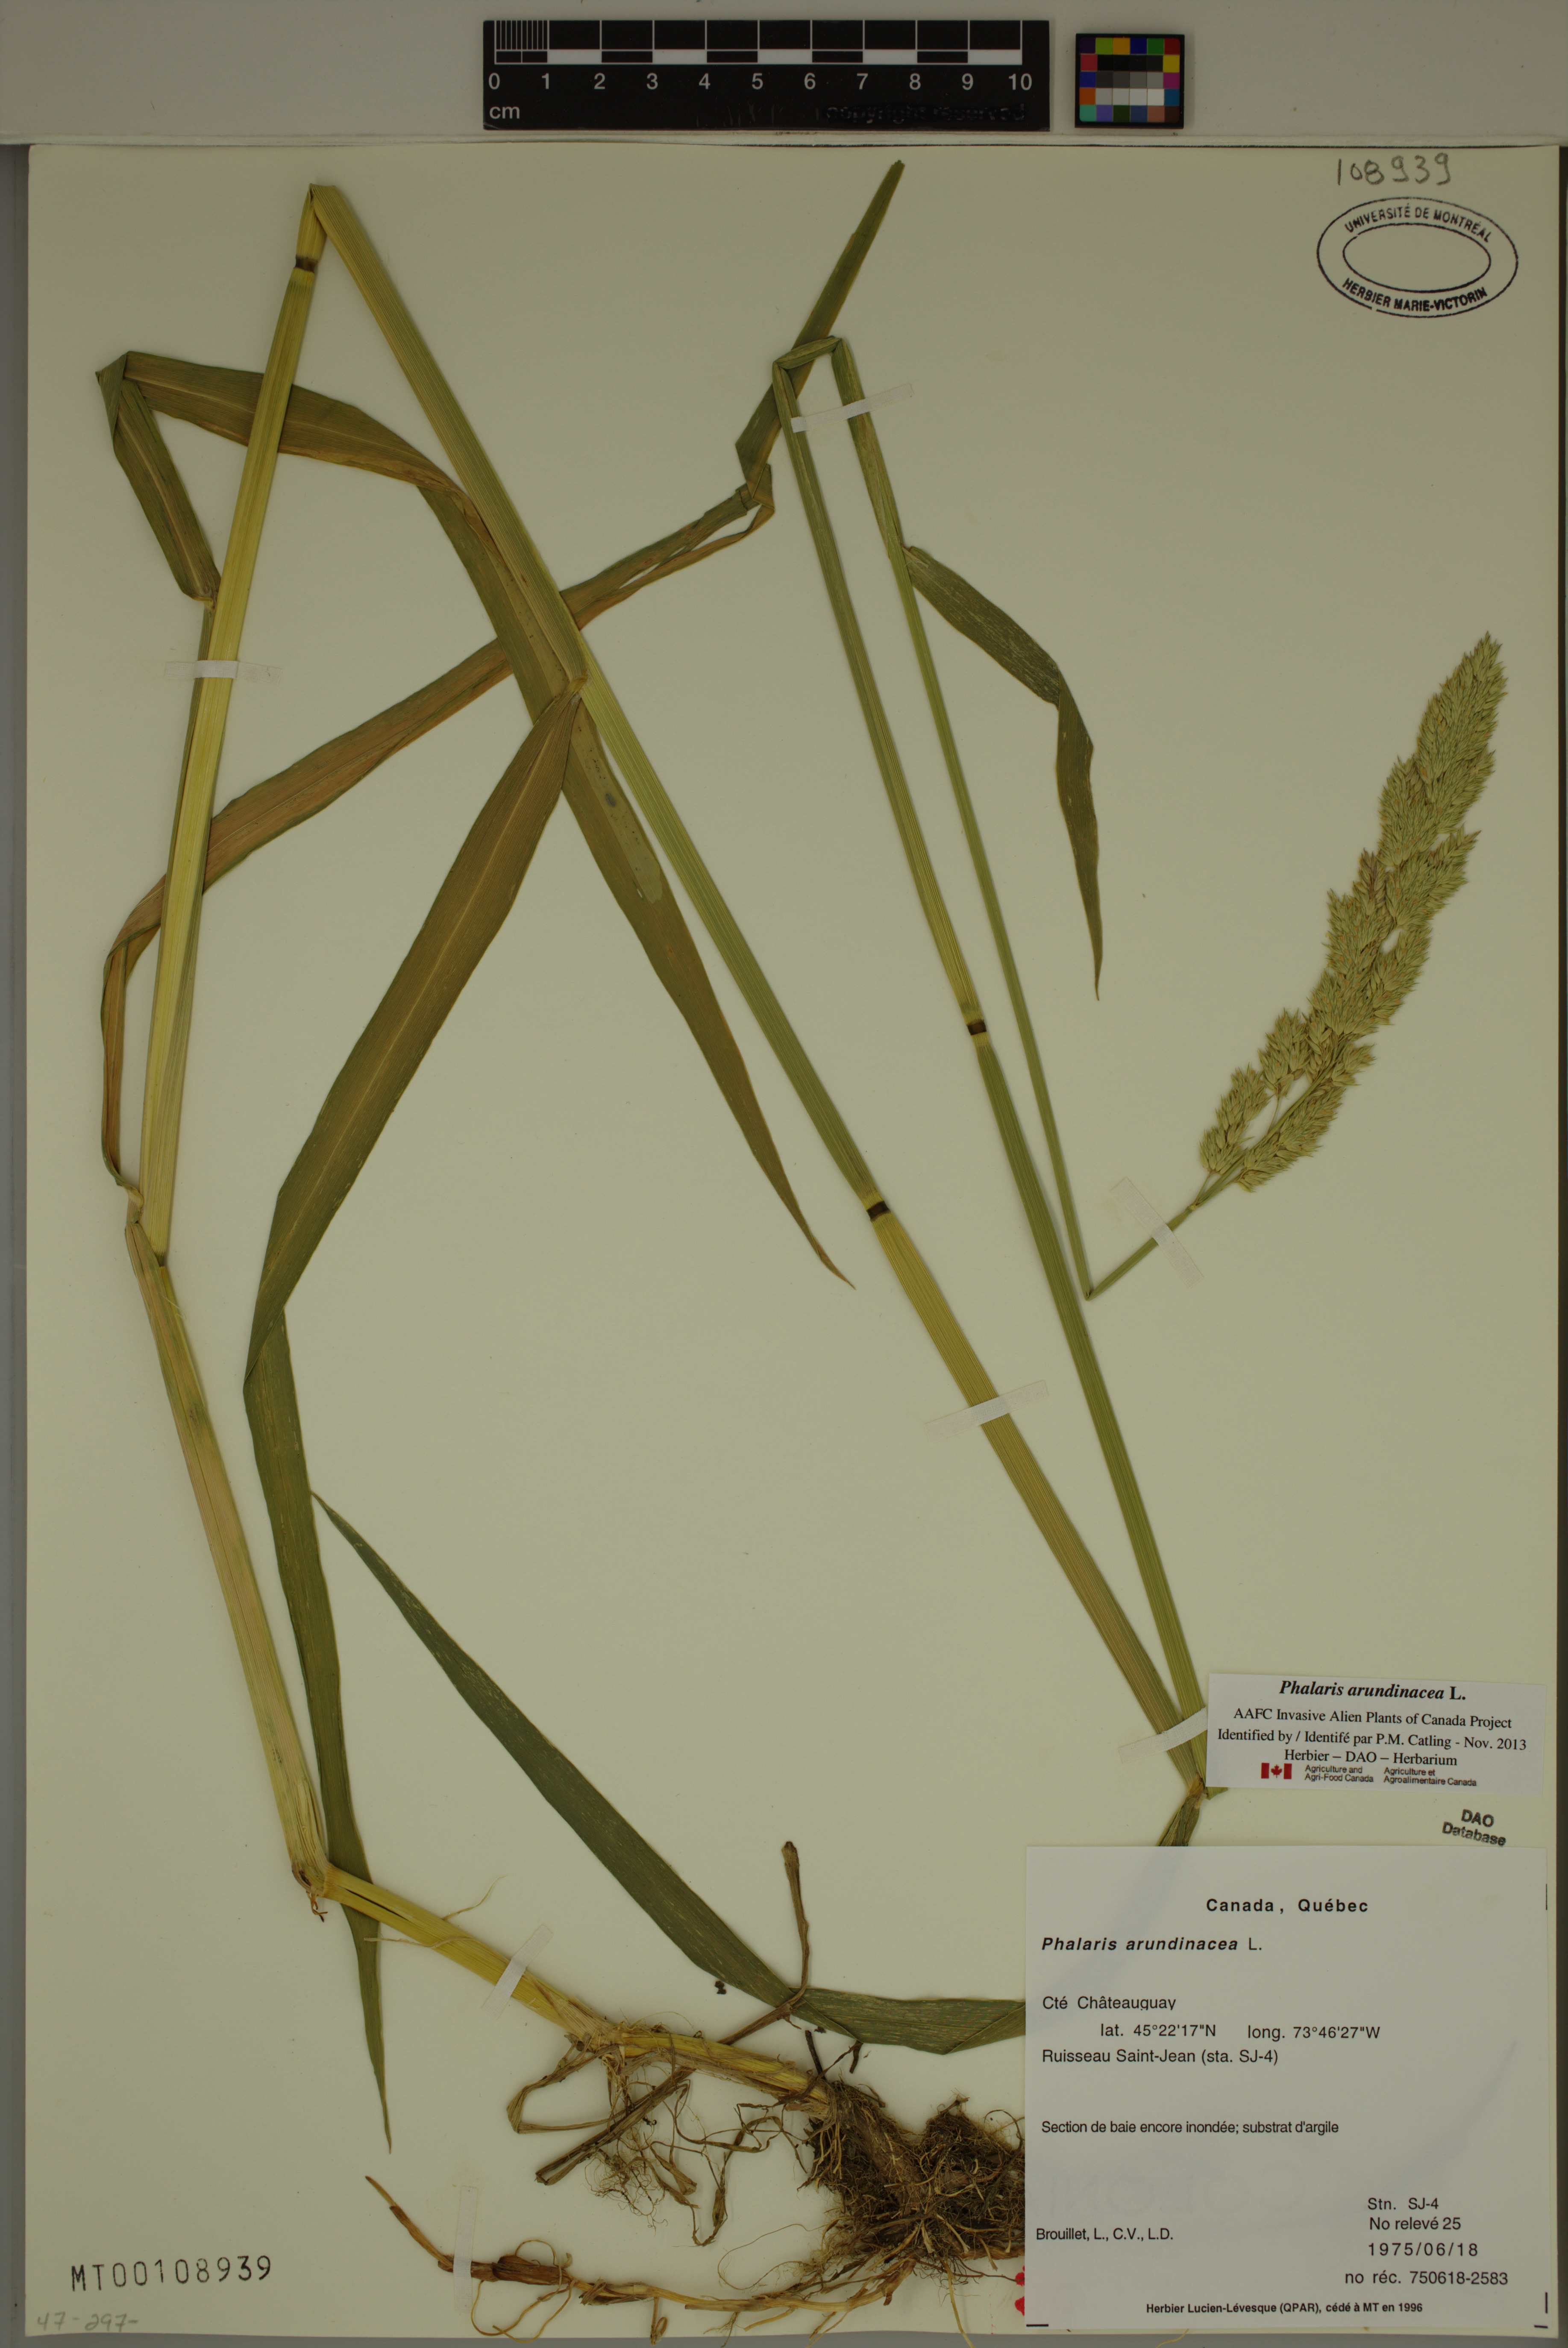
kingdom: Plantae
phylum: Tracheophyta
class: Liliopsida
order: Poales
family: Poaceae
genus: Phalaris
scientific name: Phalaris arundinacea
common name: Reed canary-grass
